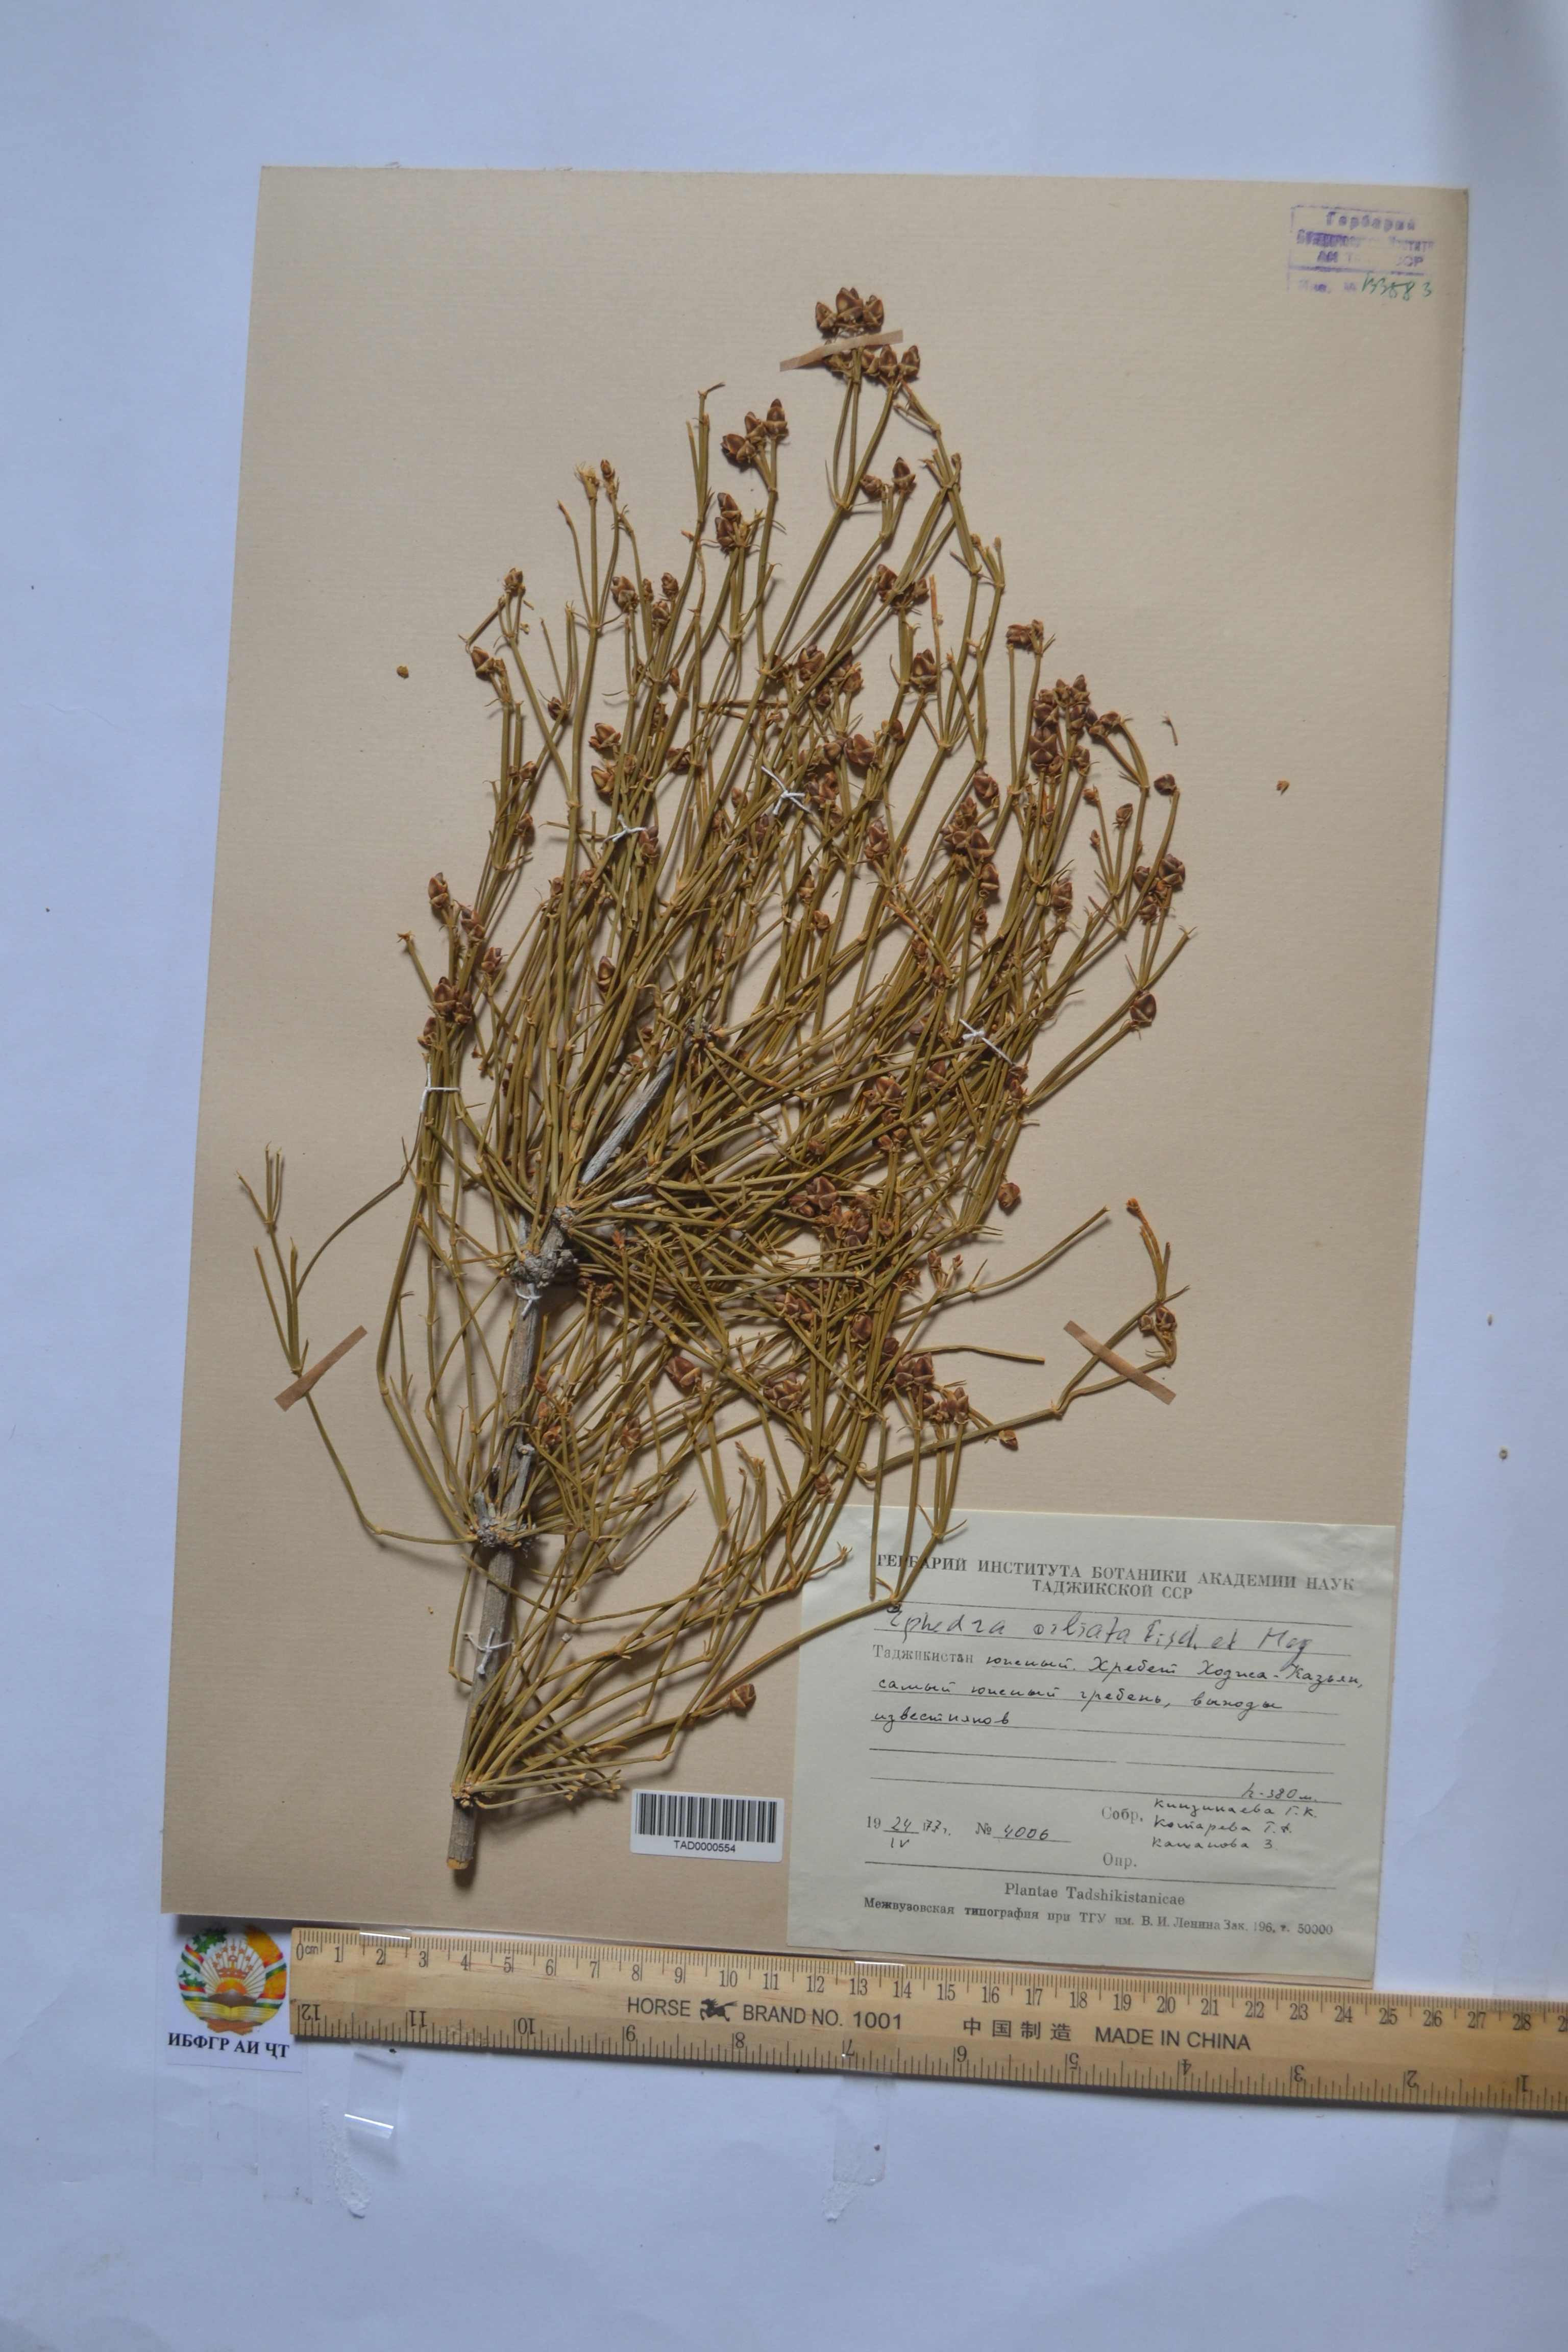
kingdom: Plantae
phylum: Tracheophyta
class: Gnetopsida
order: Ephedrales
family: Ephedraceae
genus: Ephedra
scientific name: Ephedra ciliata
